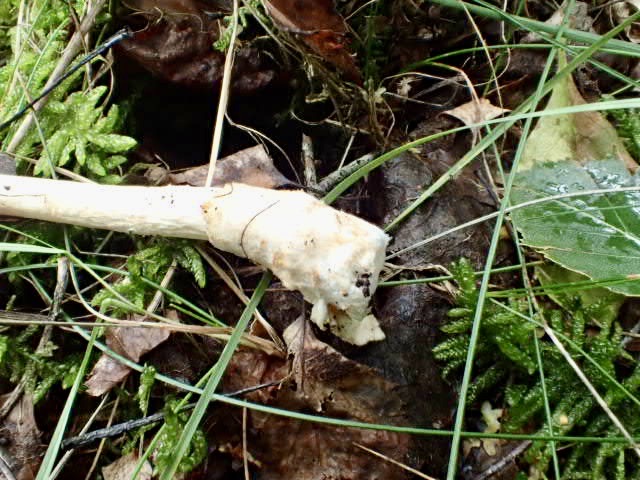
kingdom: Fungi
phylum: Basidiomycota
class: Agaricomycetes
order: Agaricales
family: Amanitaceae
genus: Amanita
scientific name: Amanita fulva
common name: brun kam-fluesvamp
